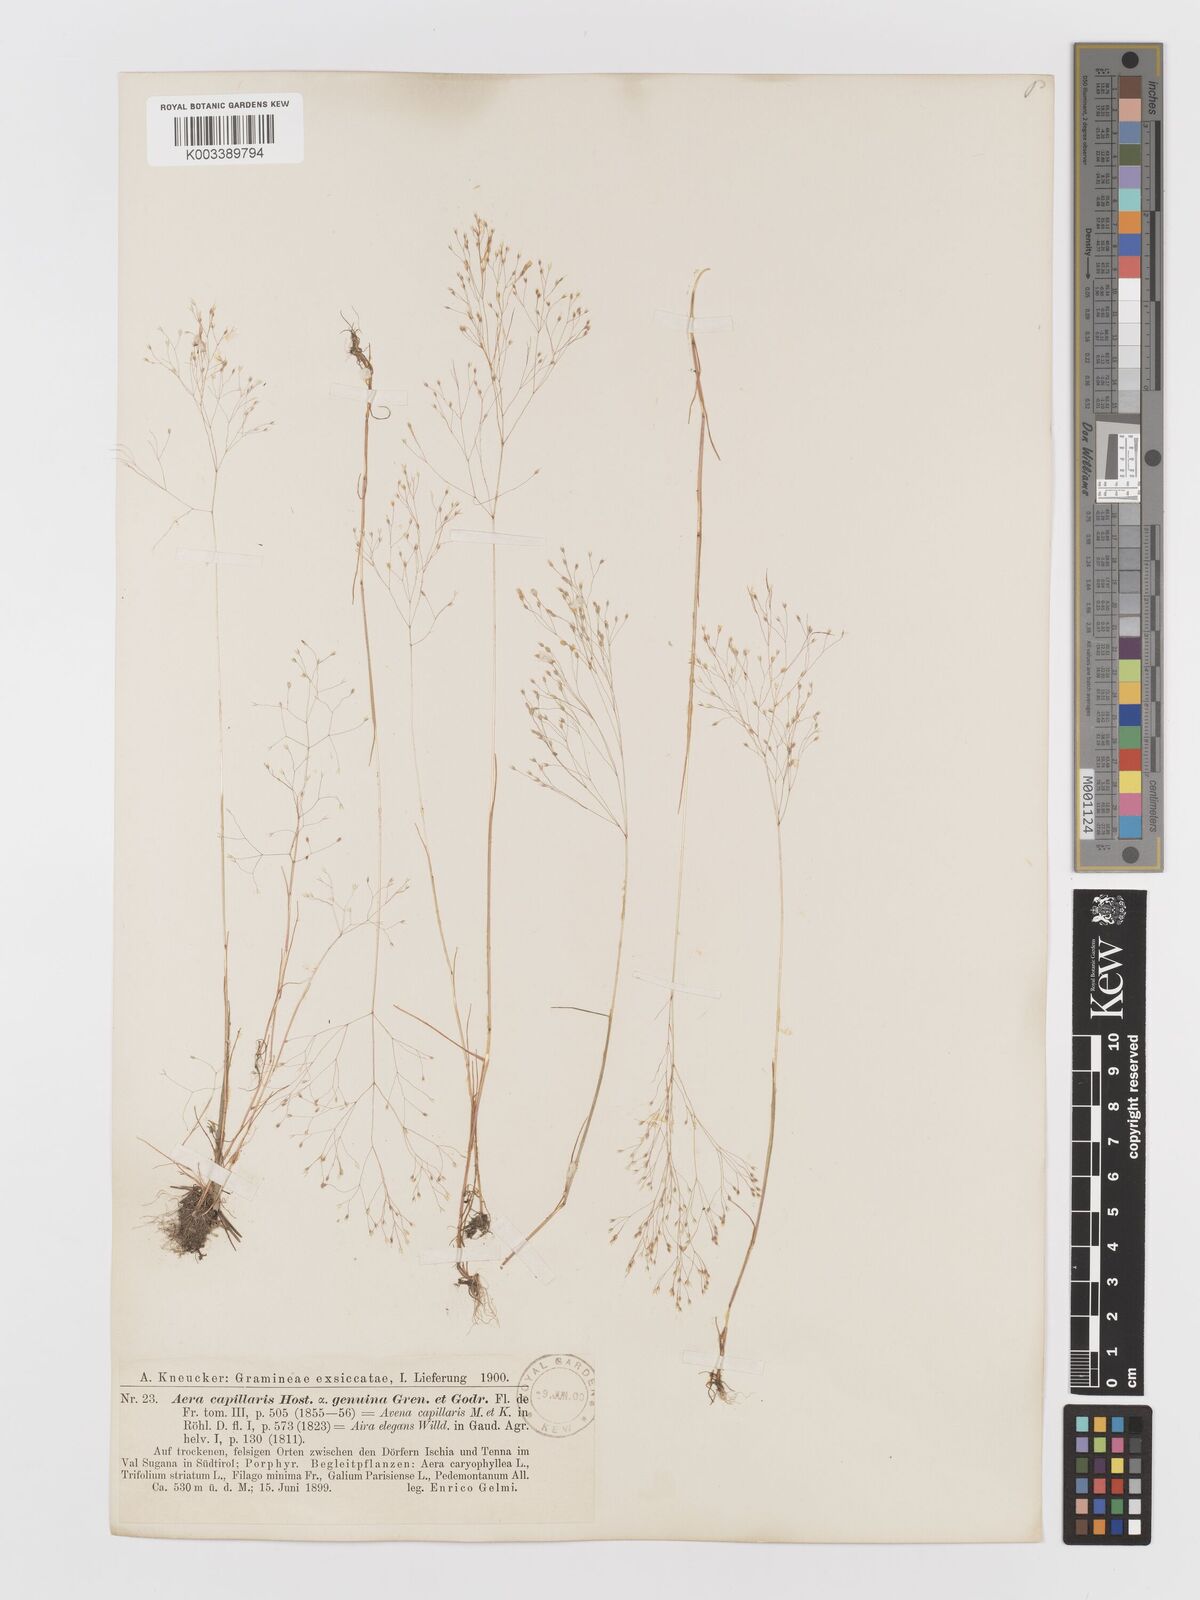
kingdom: Plantae
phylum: Tracheophyta
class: Liliopsida
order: Poales
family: Poaceae
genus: Aira
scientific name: Aira elegans
